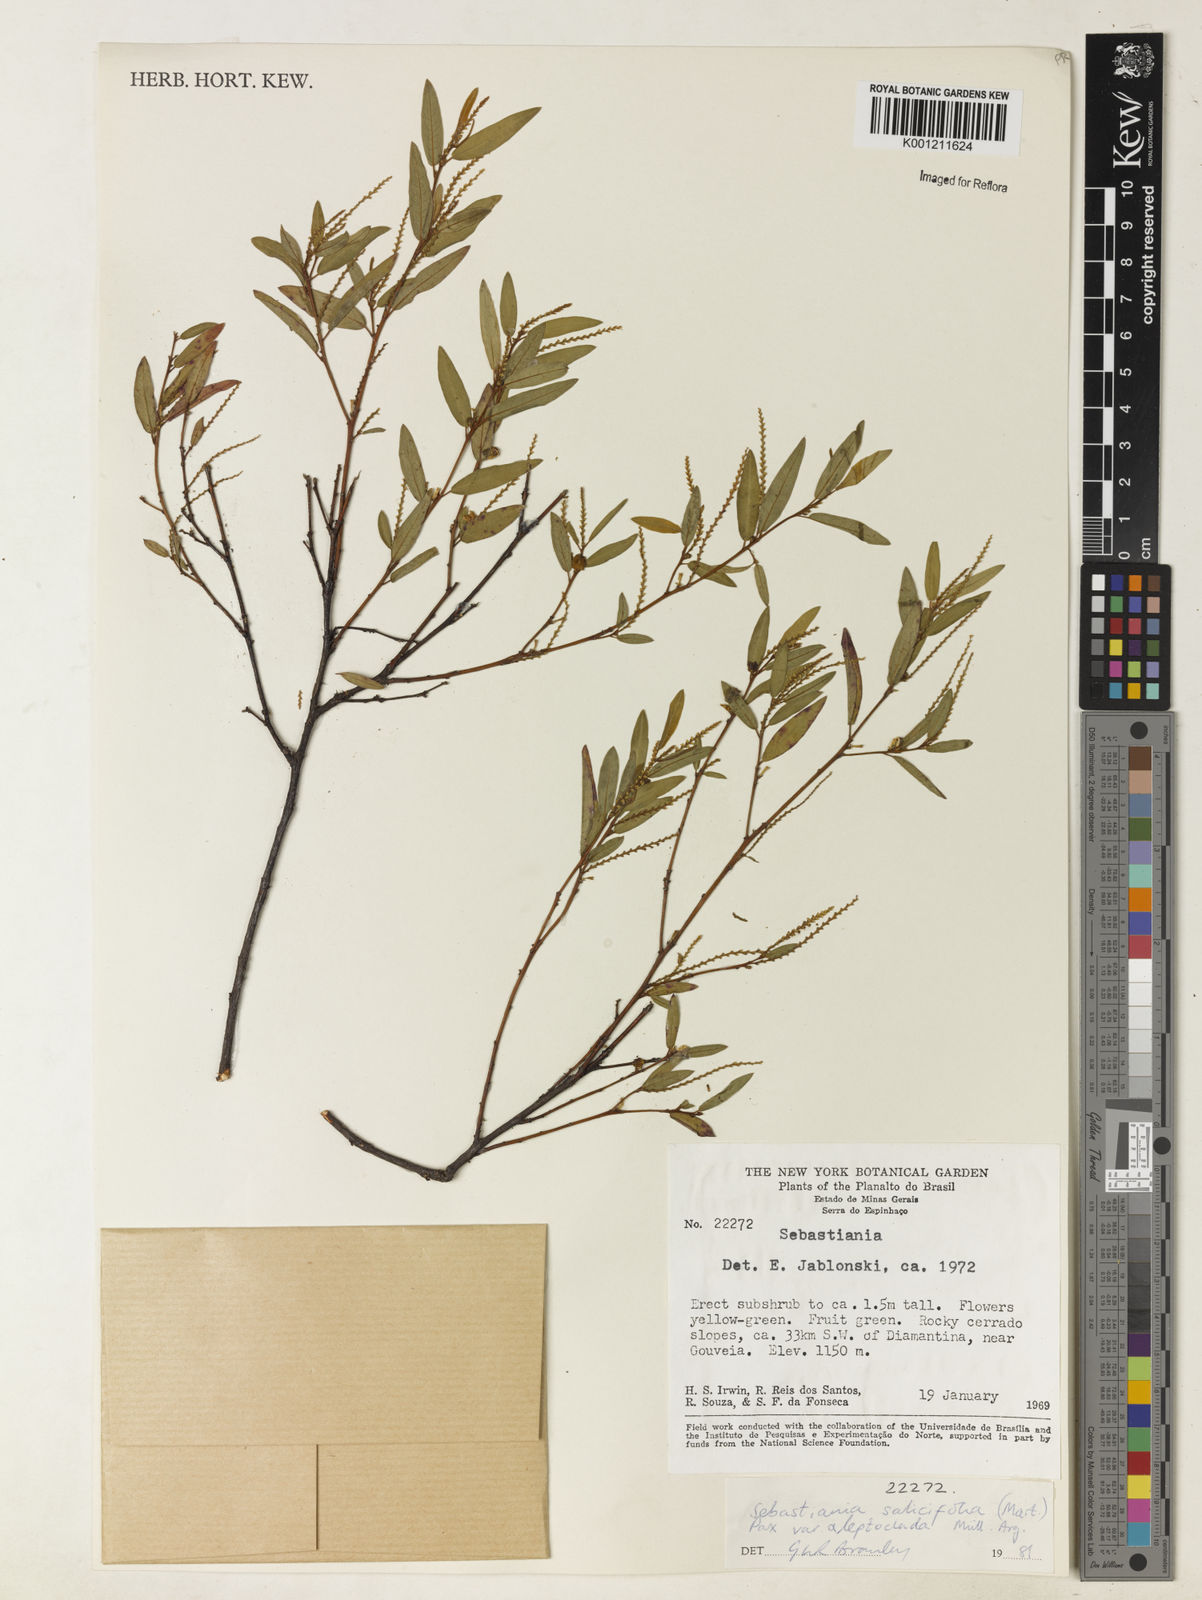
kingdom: Plantae
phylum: Tracheophyta
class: Magnoliopsida
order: Malpighiales
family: Euphorbiaceae
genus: Microstachys
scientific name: Microstachys
